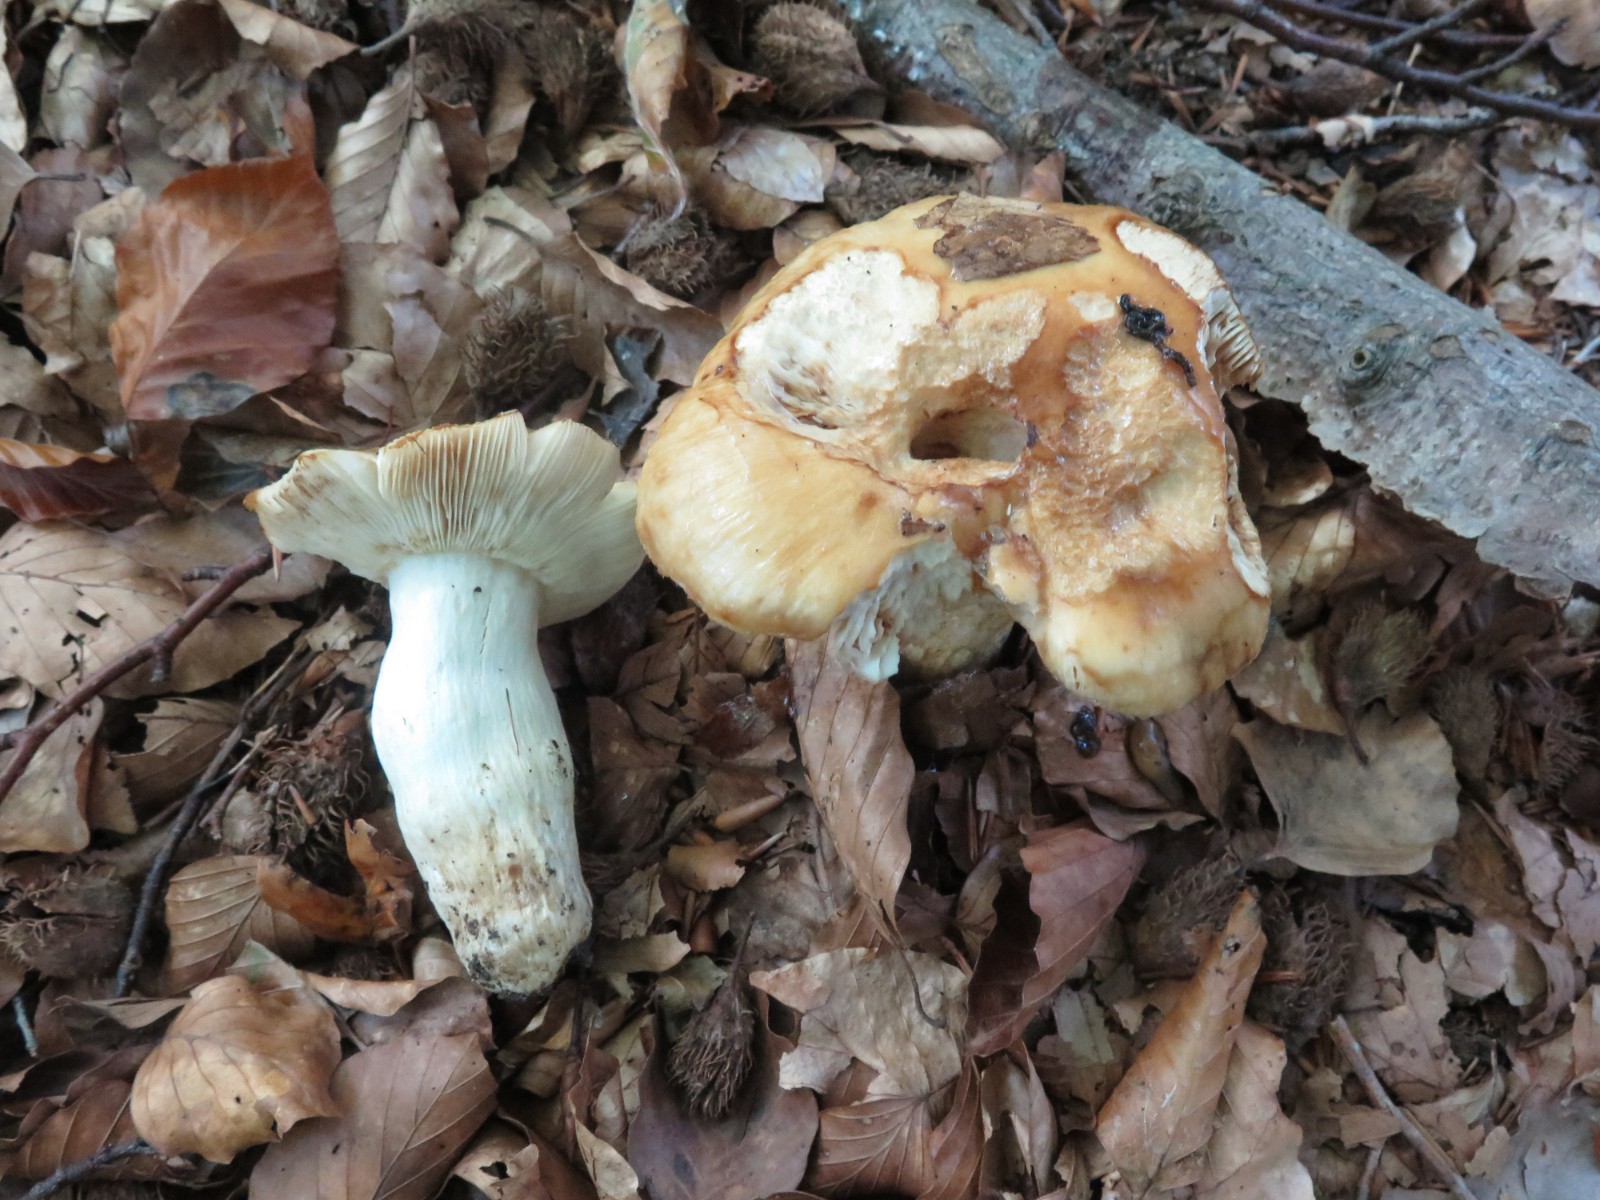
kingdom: Fungi
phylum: Basidiomycota
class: Agaricomycetes
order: Russulales
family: Russulaceae
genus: Russula
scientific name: Russula grata
